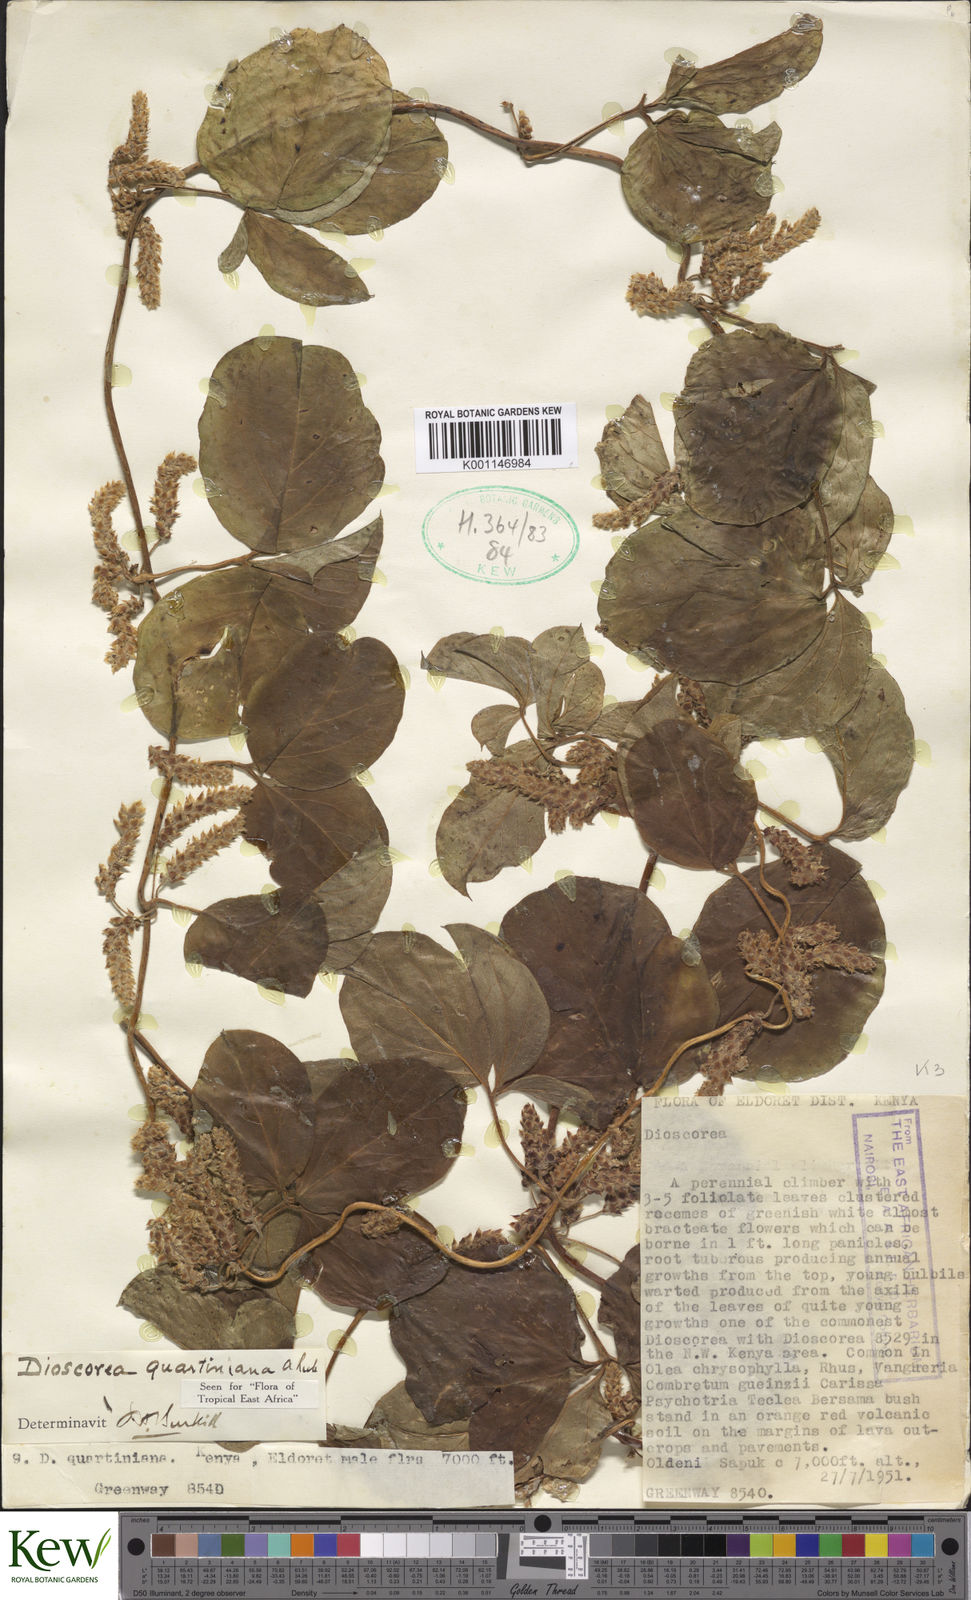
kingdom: Plantae
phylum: Tracheophyta
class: Liliopsida
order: Dioscoreales
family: Dioscoreaceae
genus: Dioscorea
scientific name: Dioscorea quartiniana
